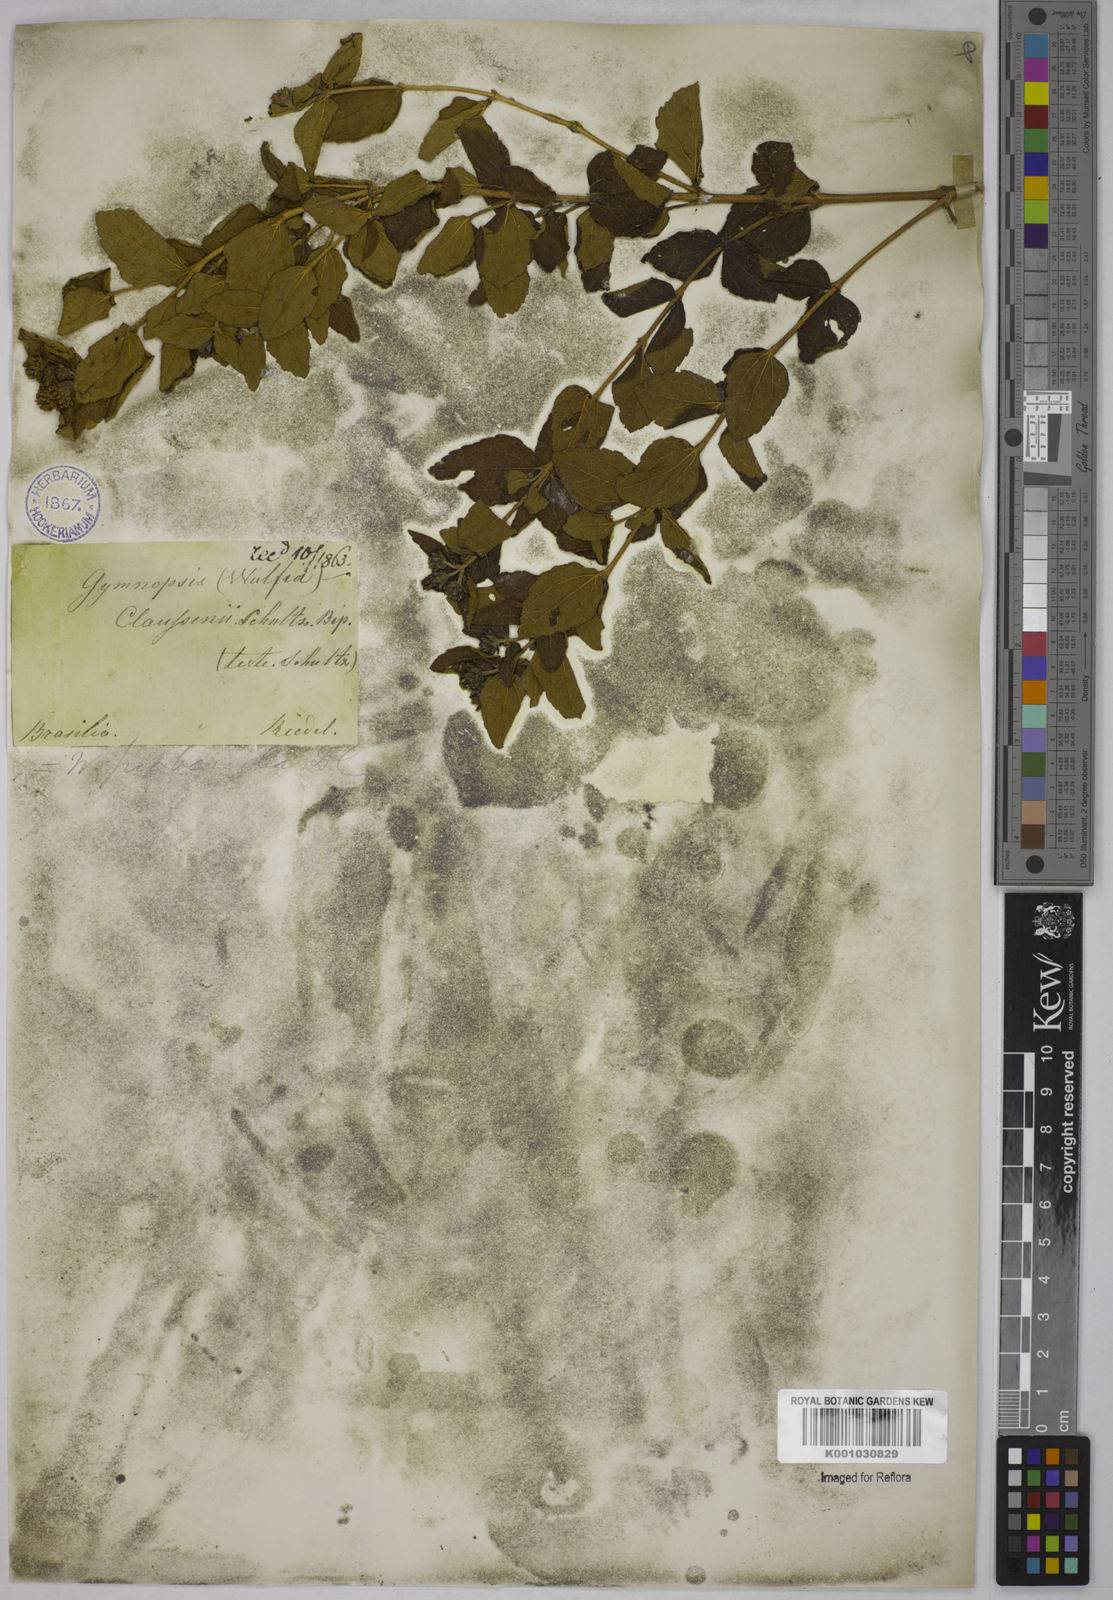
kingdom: Plantae
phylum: Tracheophyta
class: Magnoliopsida
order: Asterales
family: Asteraceae
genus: Wedelia
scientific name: Wedelia puberula
